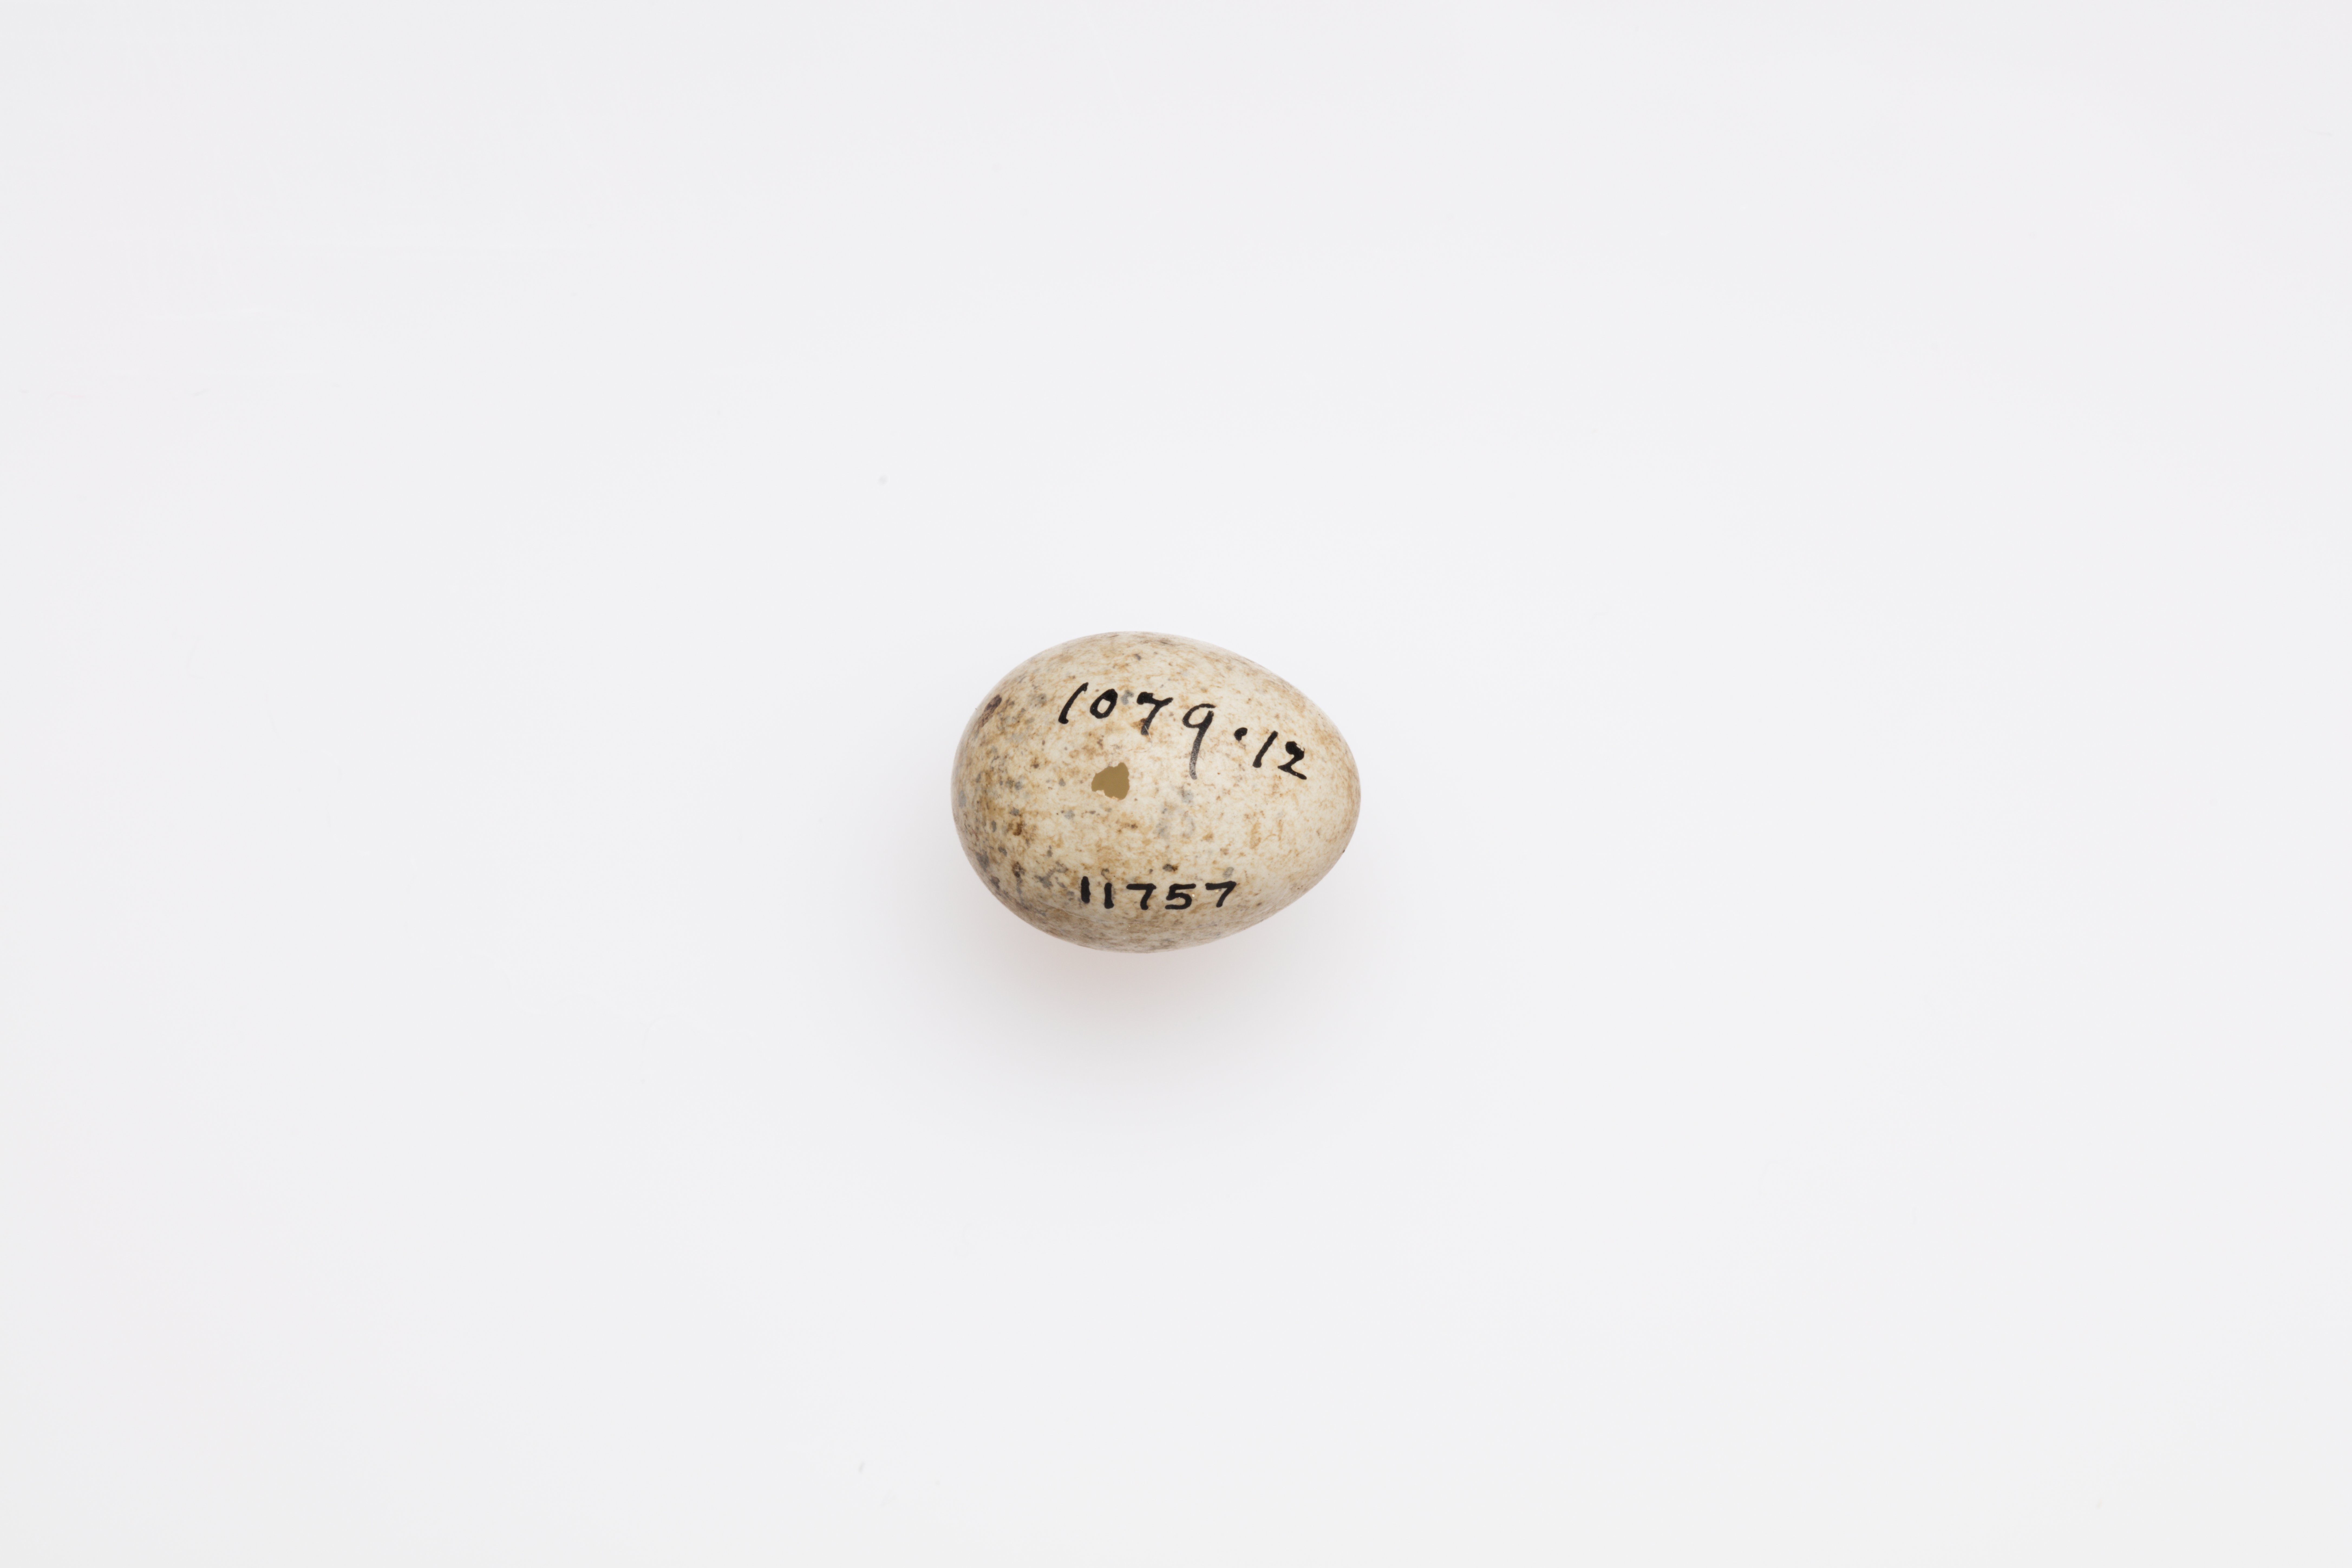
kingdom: Animalia
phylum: Chordata
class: Aves
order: Passeriformes
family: Sylviidae
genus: Sylvia
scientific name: Sylvia communis
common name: Common whitethroat
